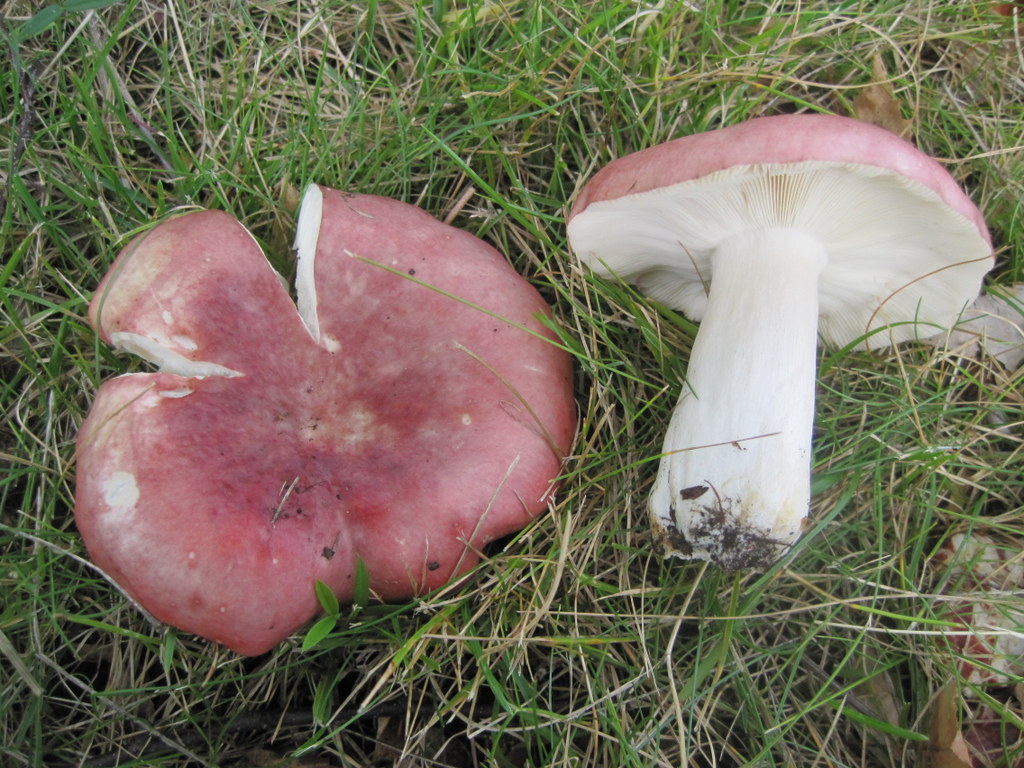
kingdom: Fungi
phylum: Basidiomycota
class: Agaricomycetes
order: Russulales
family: Russulaceae
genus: Russula
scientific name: Russula depallens
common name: falmende skørhat
